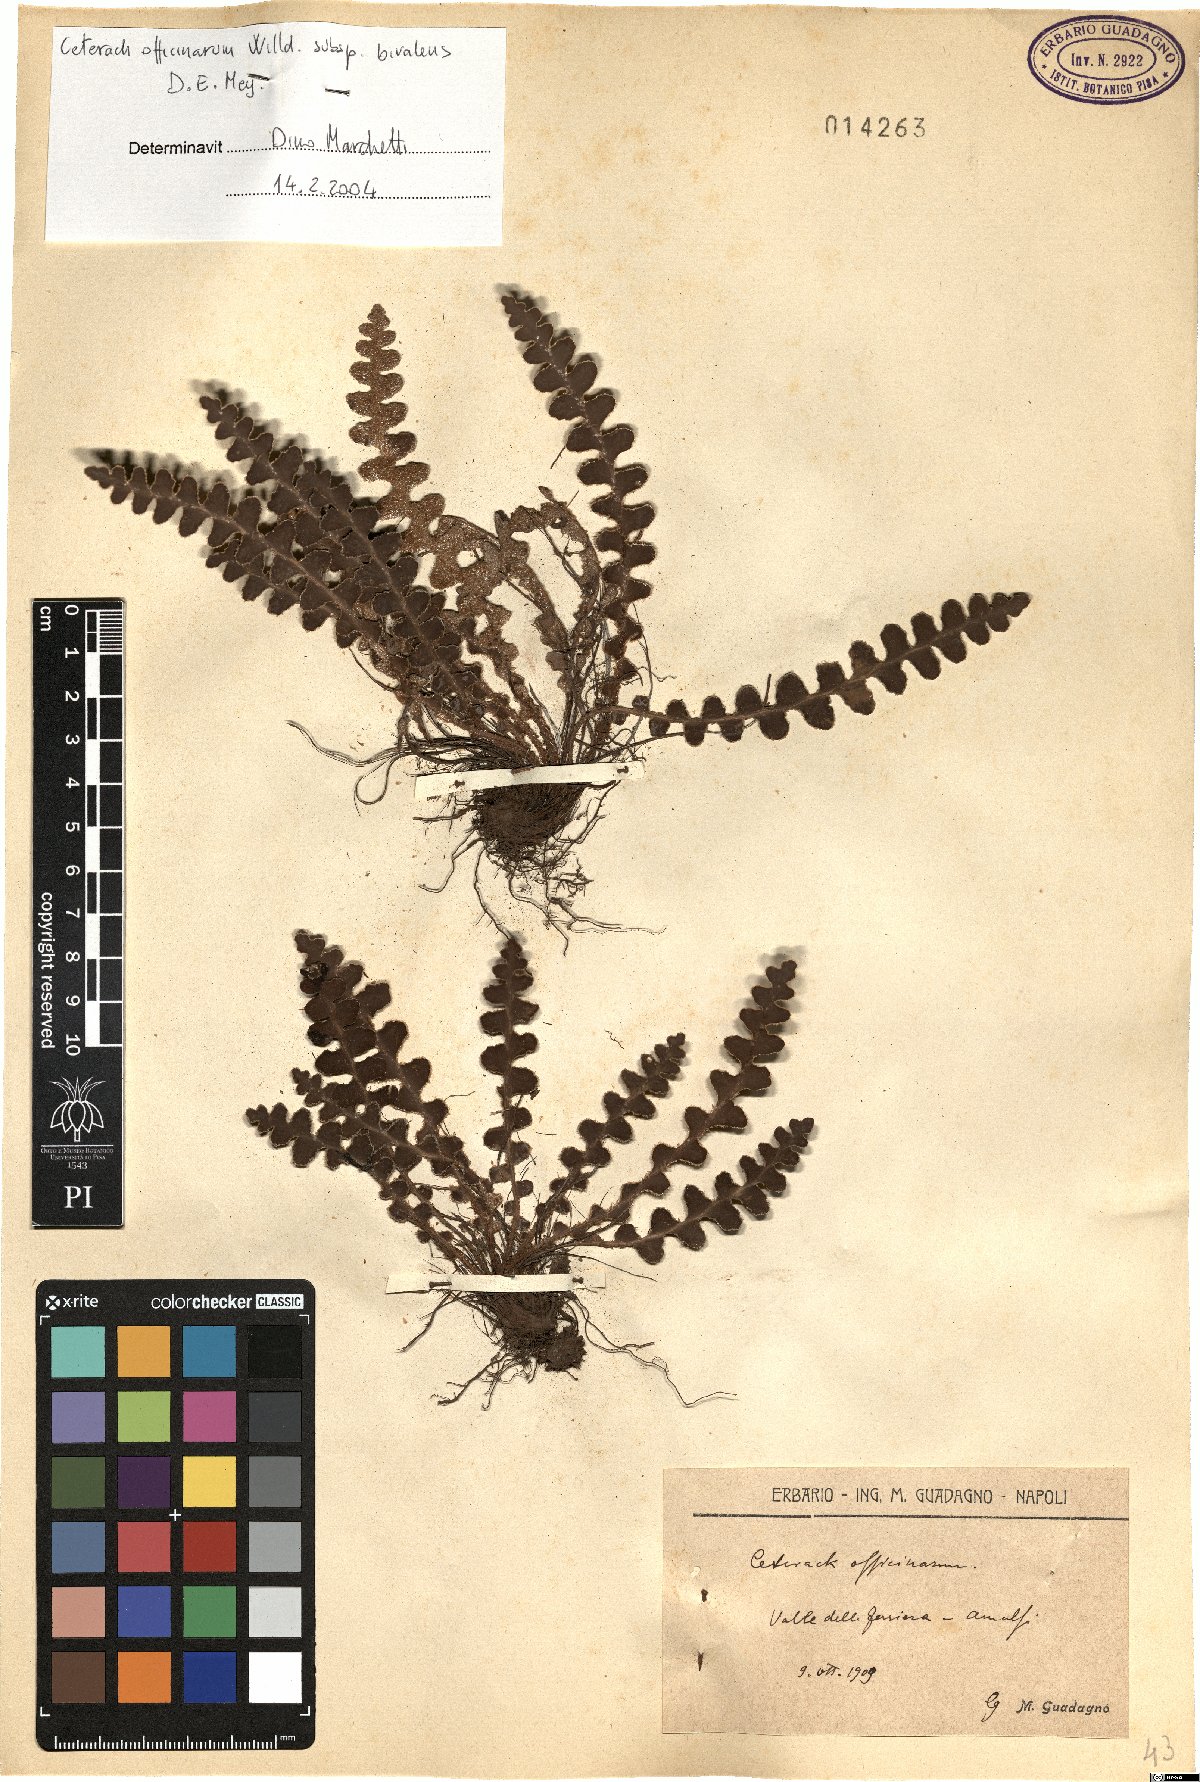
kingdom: Plantae
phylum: Tracheophyta
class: Polypodiopsida
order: Polypodiales
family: Aspleniaceae
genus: Asplenium
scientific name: Asplenium ceterach
